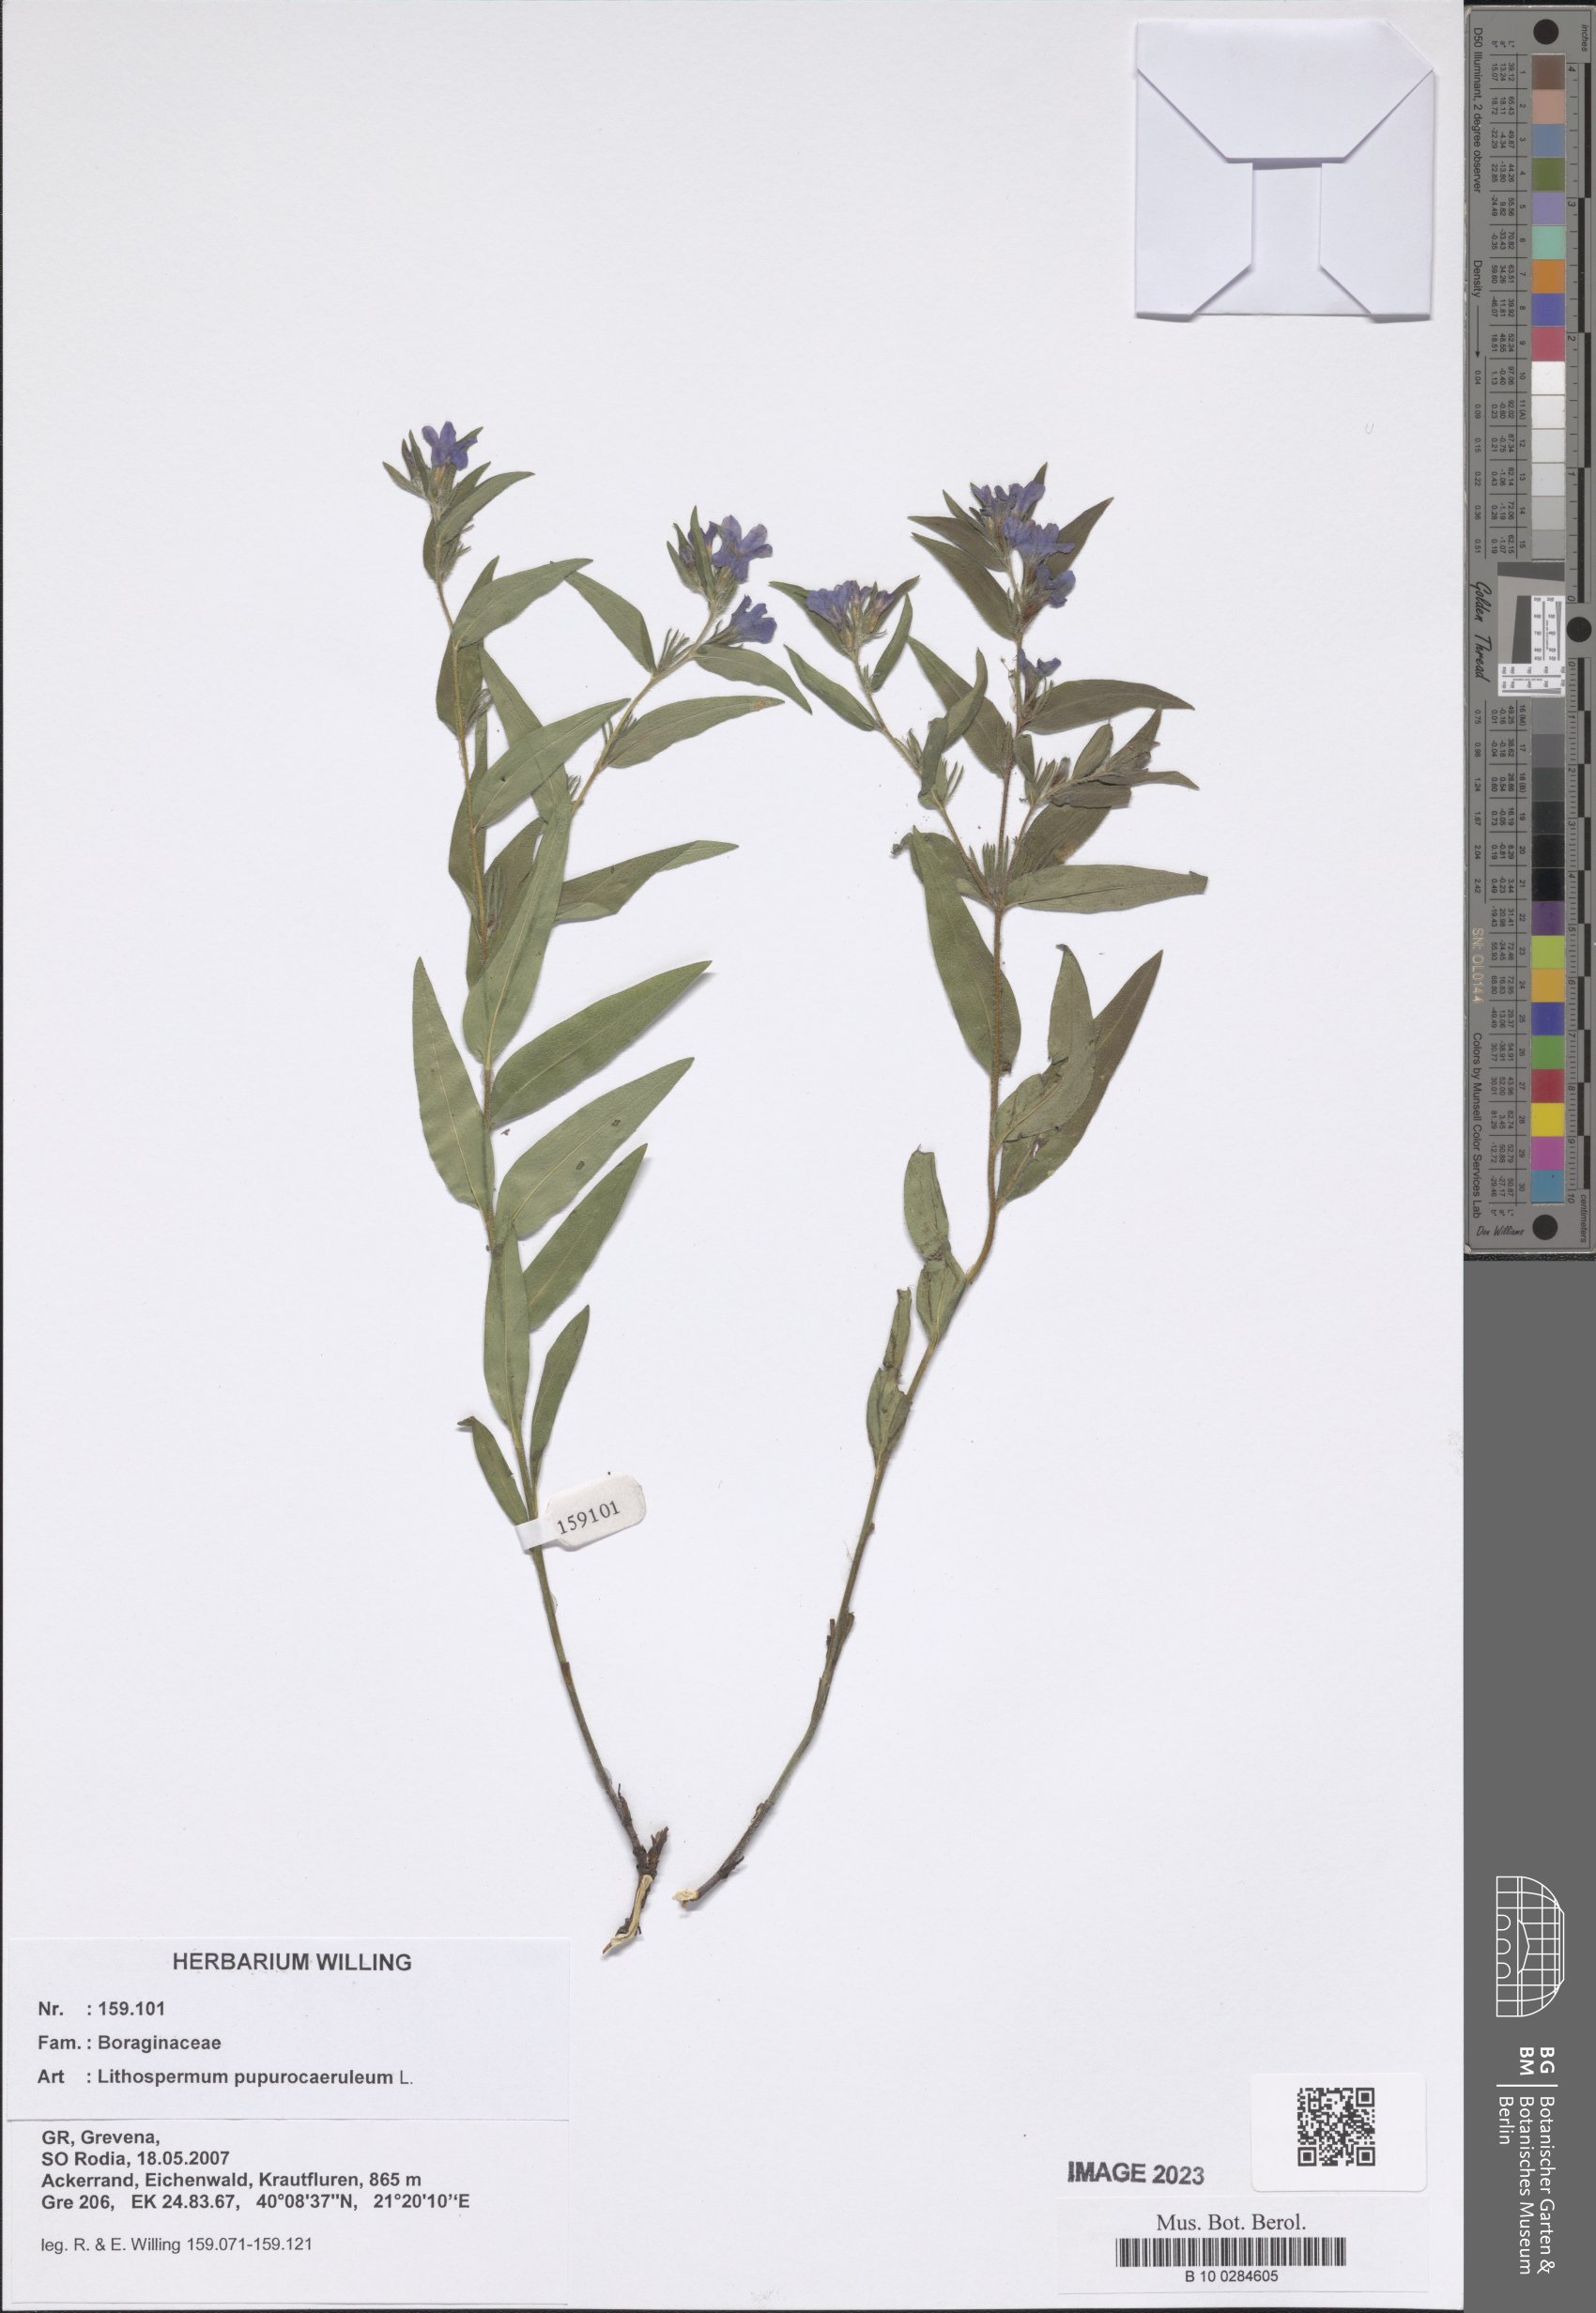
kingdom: Plantae
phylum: Tracheophyta
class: Magnoliopsida
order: Boraginales
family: Boraginaceae
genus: Aegonychon
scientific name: Aegonychon purpurocaeruleum
